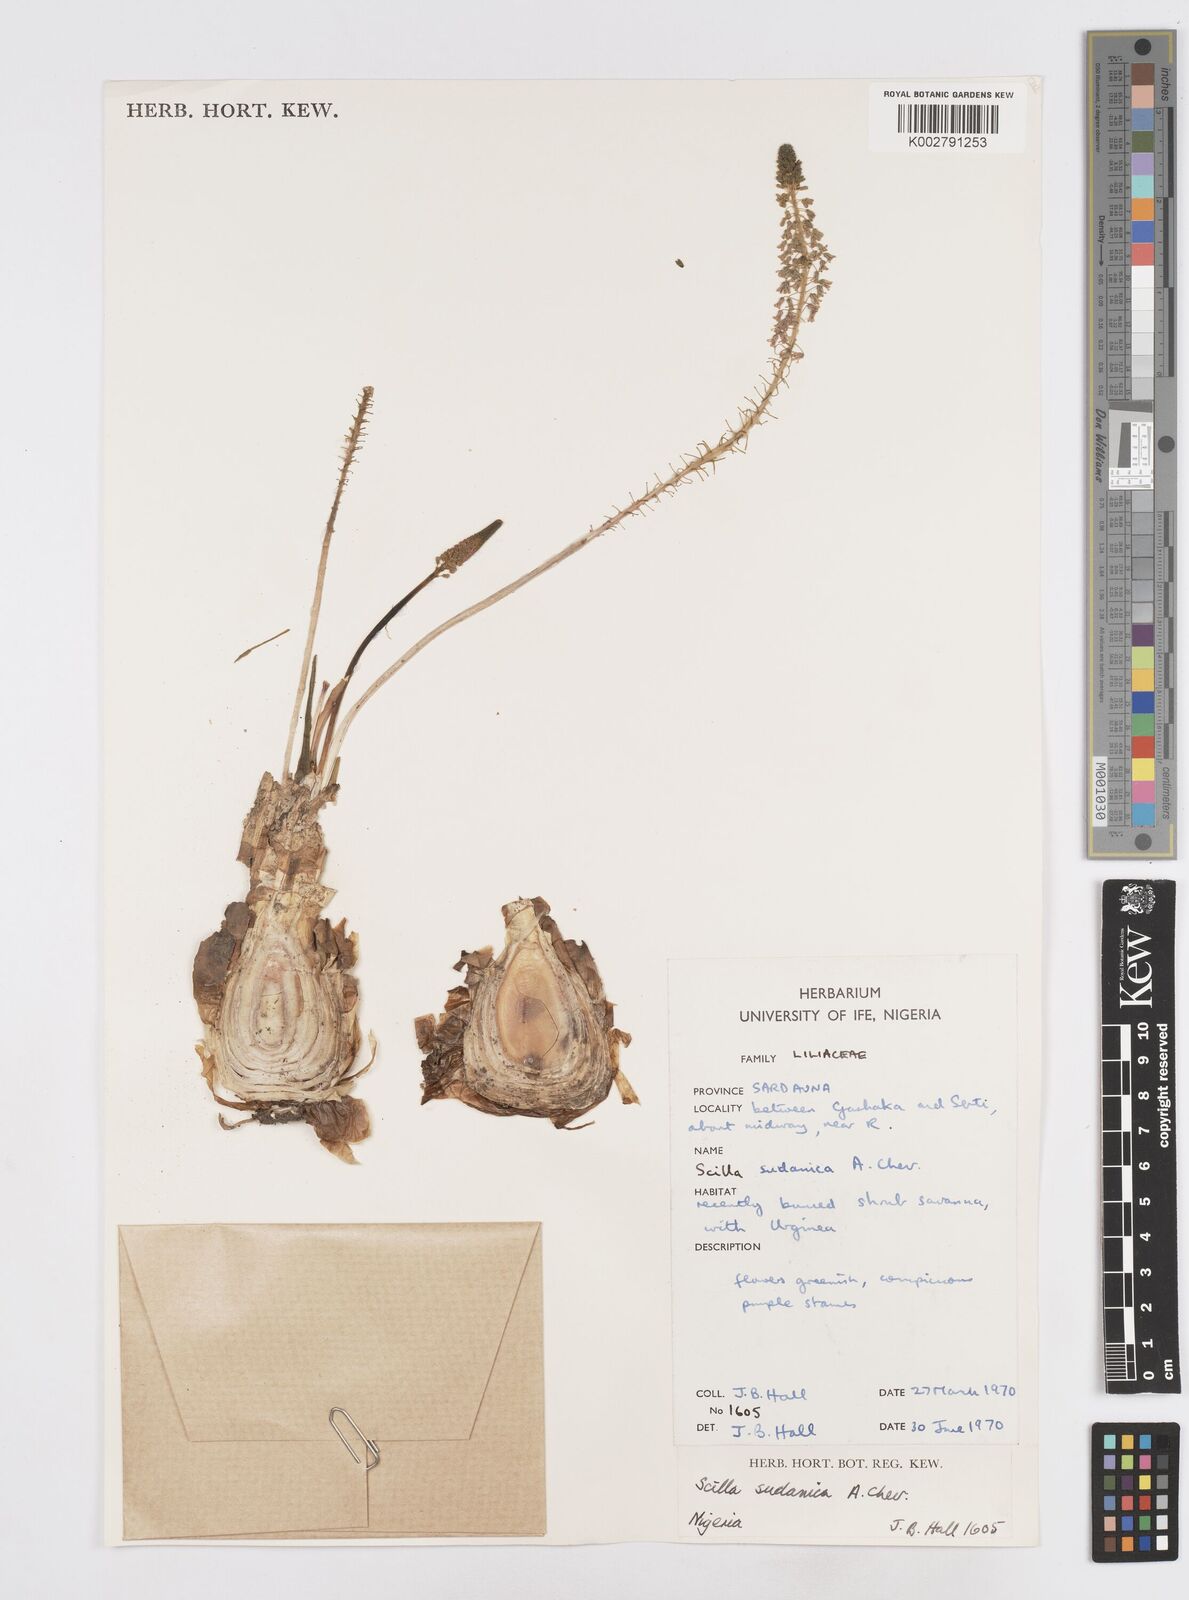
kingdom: Plantae
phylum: Tracheophyta
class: Liliopsida
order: Asparagales
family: Asparagaceae
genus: Ledebouria
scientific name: Ledebouria sudanica
